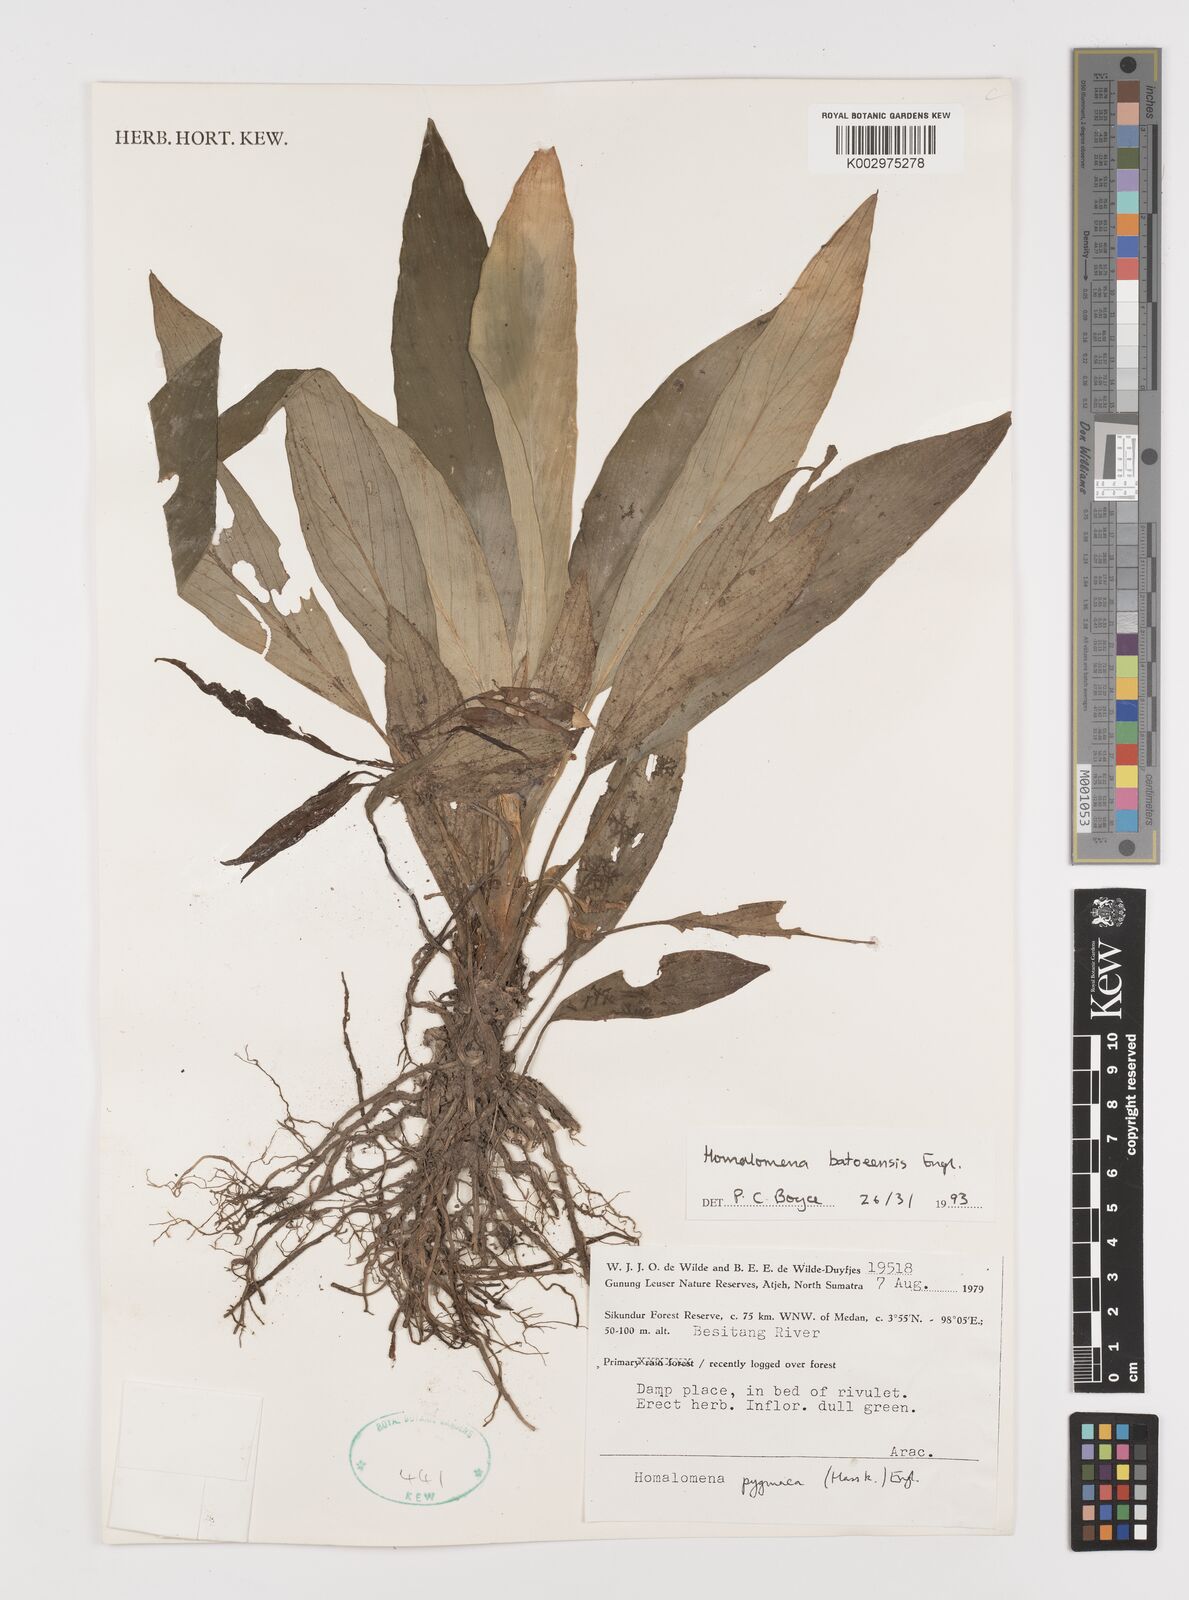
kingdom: Plantae
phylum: Tracheophyta
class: Liliopsida
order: Alismatales
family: Araceae
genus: Homalomena
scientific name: Homalomena batoeensis
